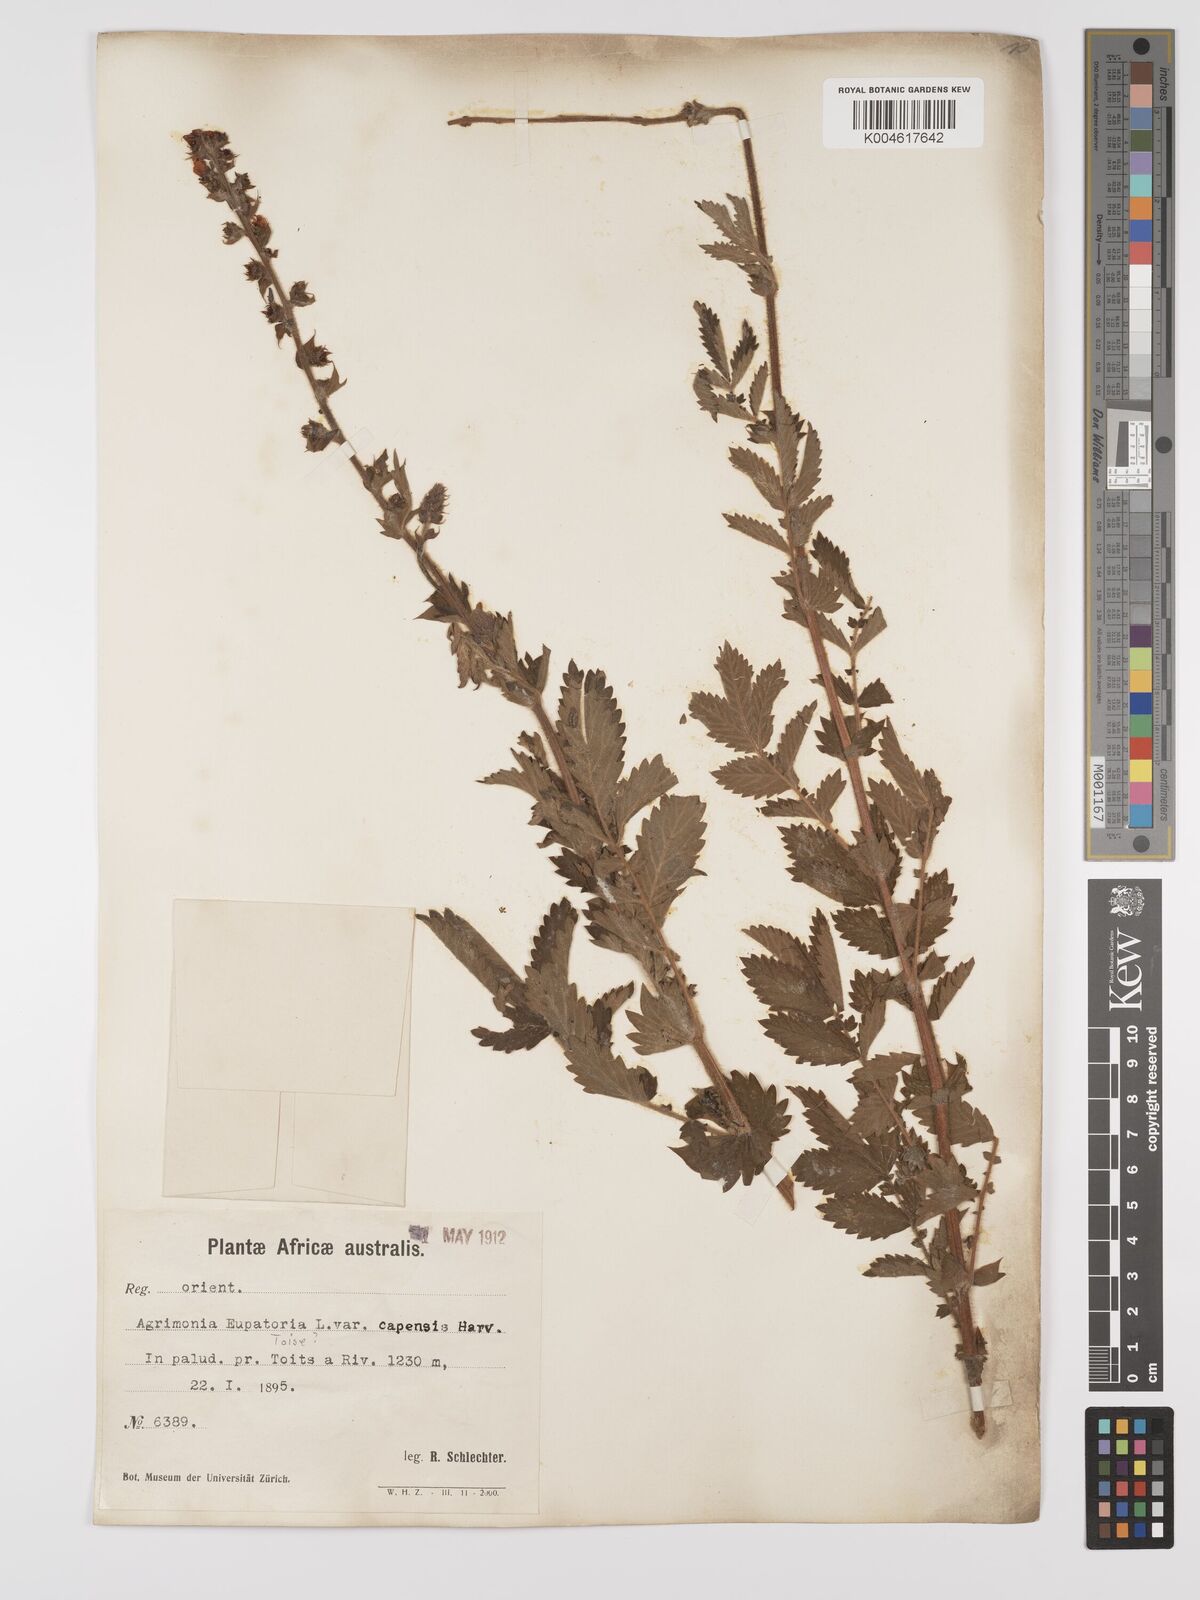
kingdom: Plantae
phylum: Tracheophyta
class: Magnoliopsida
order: Rosales
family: Rosaceae
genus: Agrimonia
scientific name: Agrimonia eupatoria
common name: Agrimony
